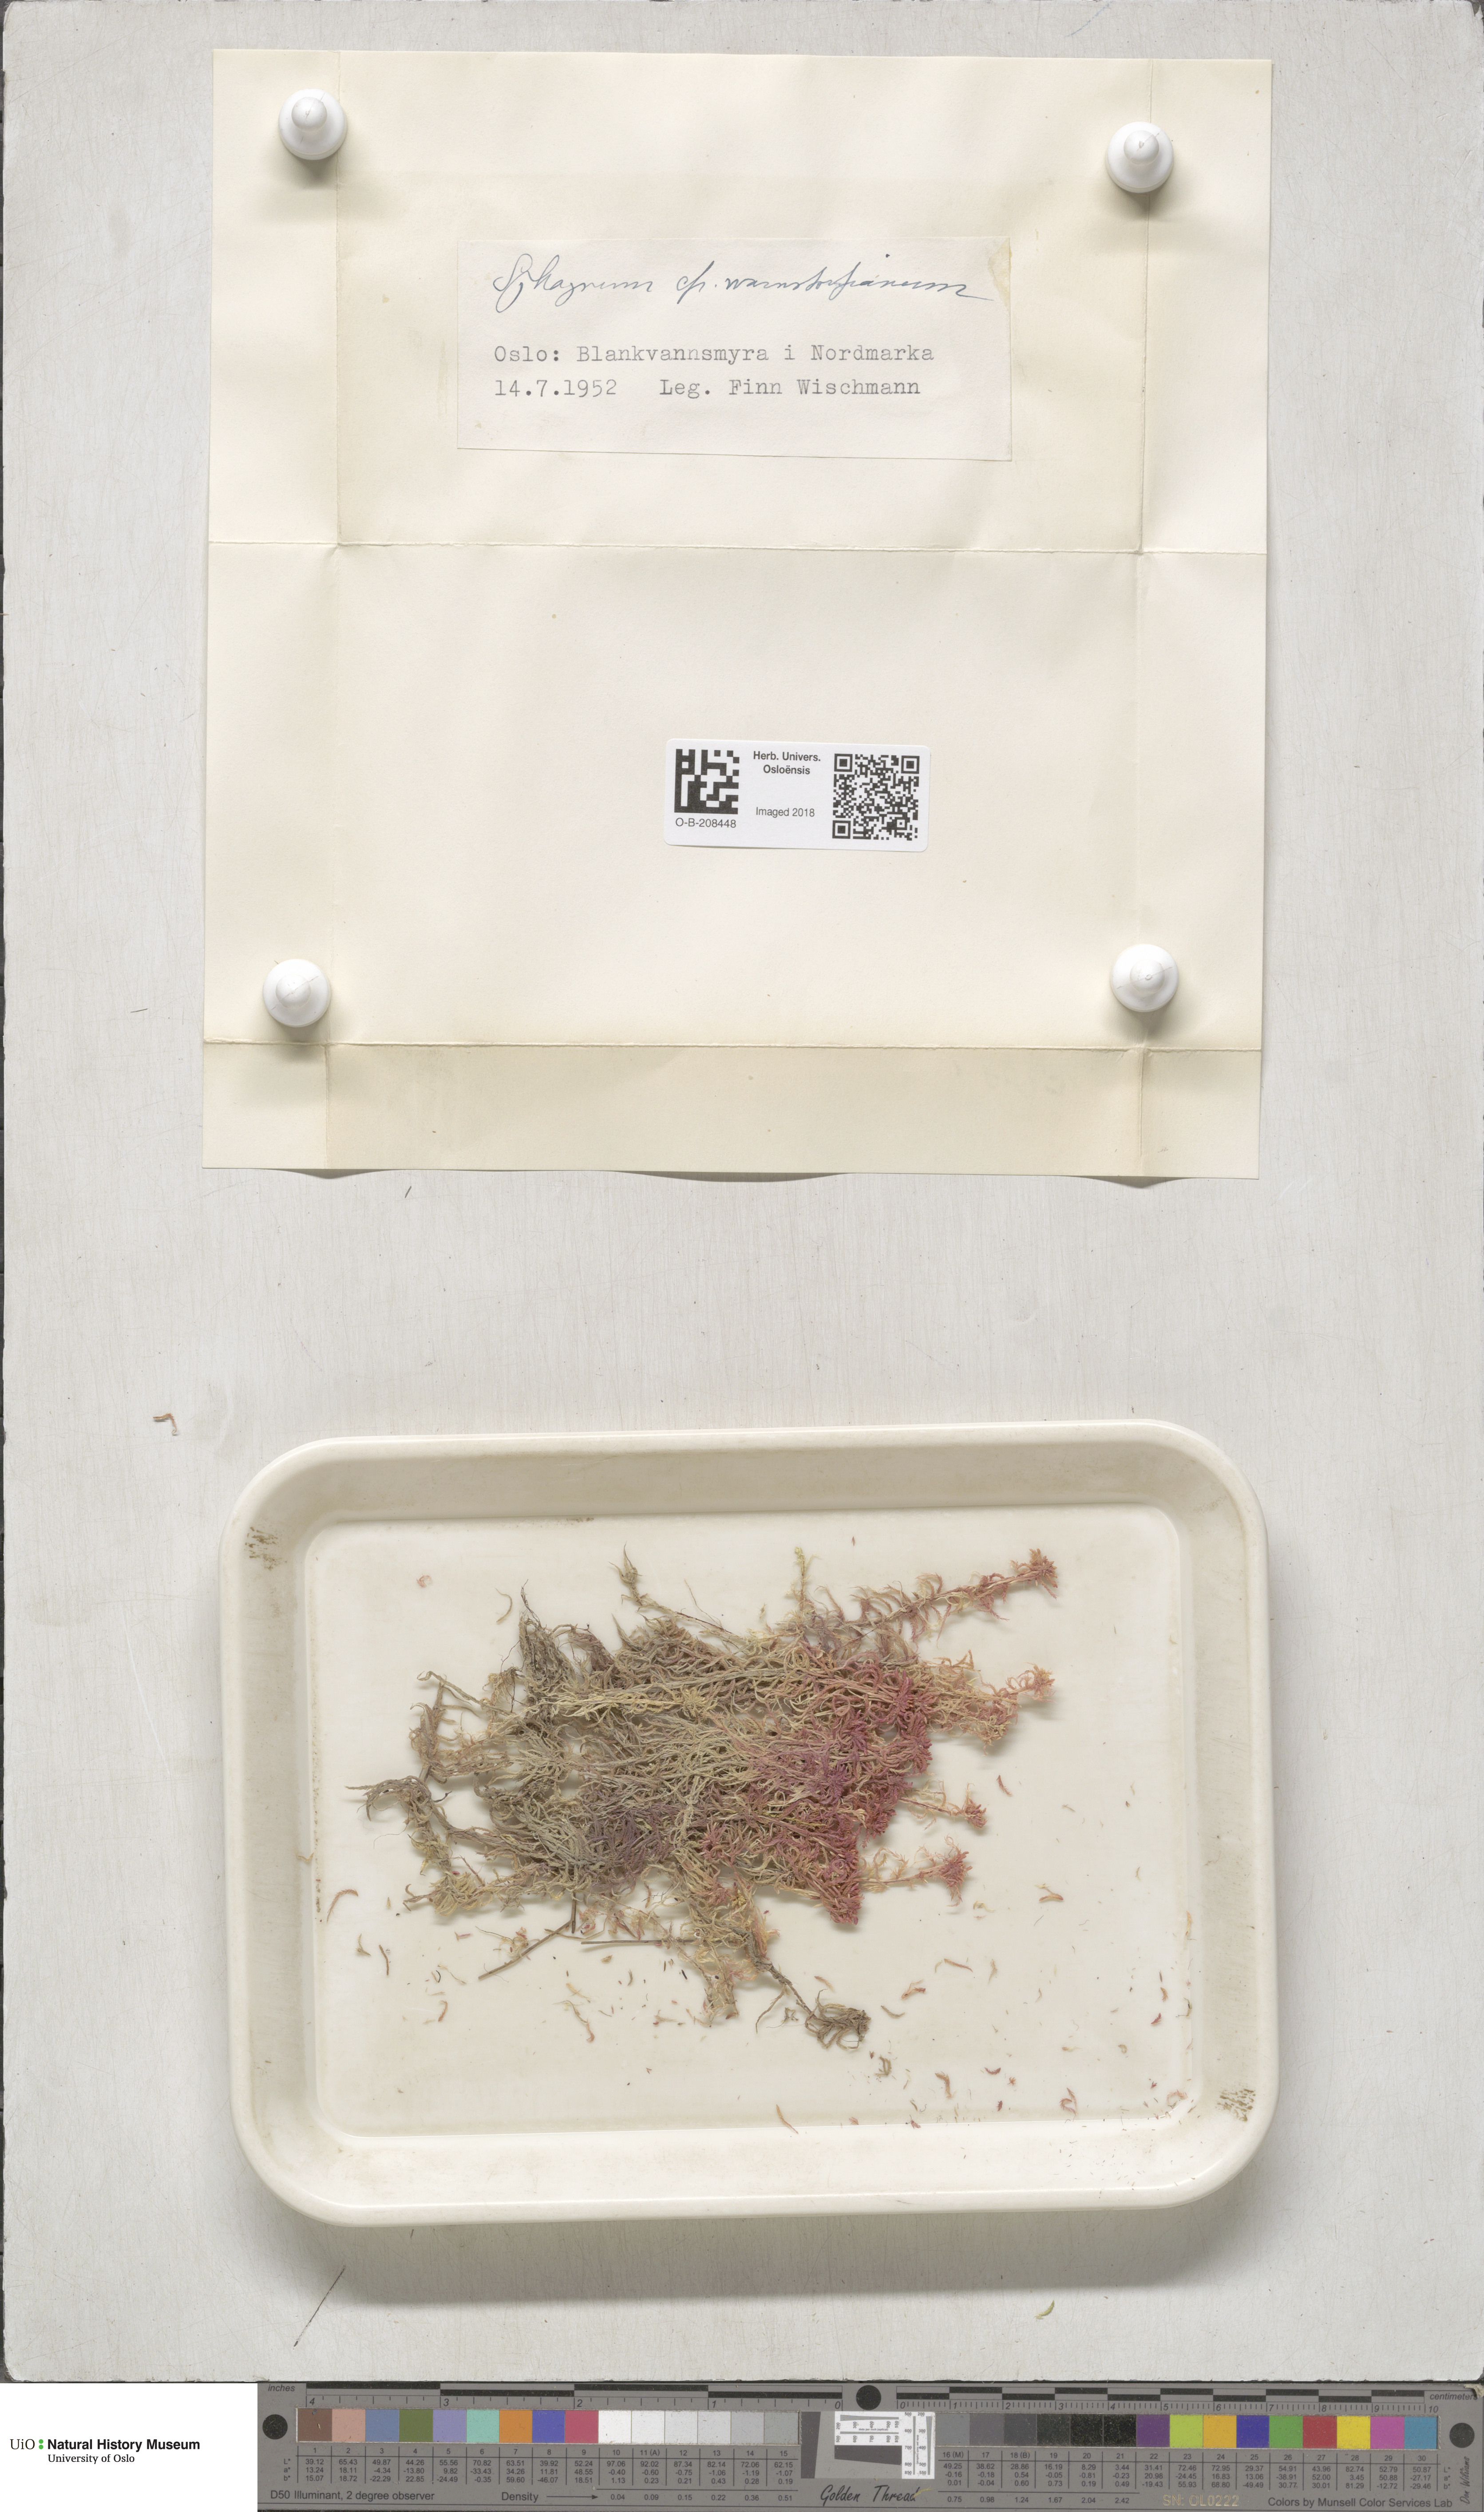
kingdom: Plantae
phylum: Bryophyta
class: Sphagnopsida
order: Sphagnales
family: Sphagnaceae
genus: Sphagnum
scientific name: Sphagnum warnstorfii
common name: Warnstorf's peat moss
